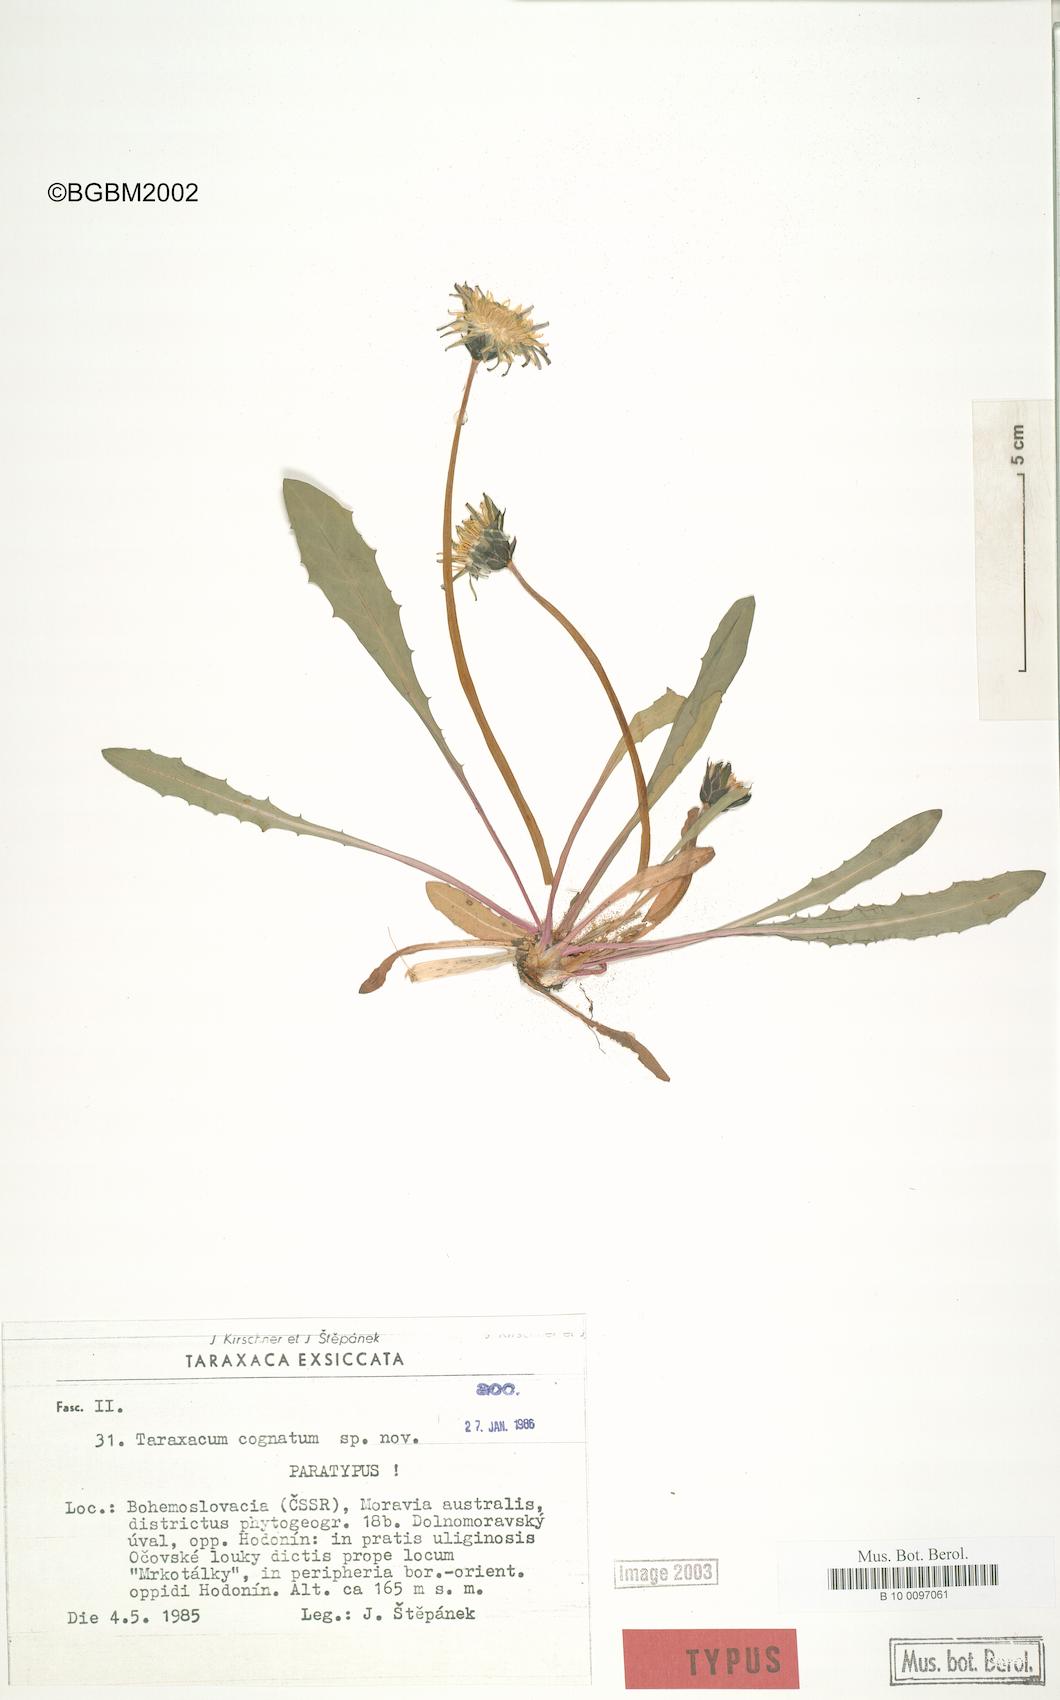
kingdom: Plantae
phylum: Tracheophyta
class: Magnoliopsida
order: Asterales
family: Asteraceae
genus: Taraxacum
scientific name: Taraxacum cognatum
